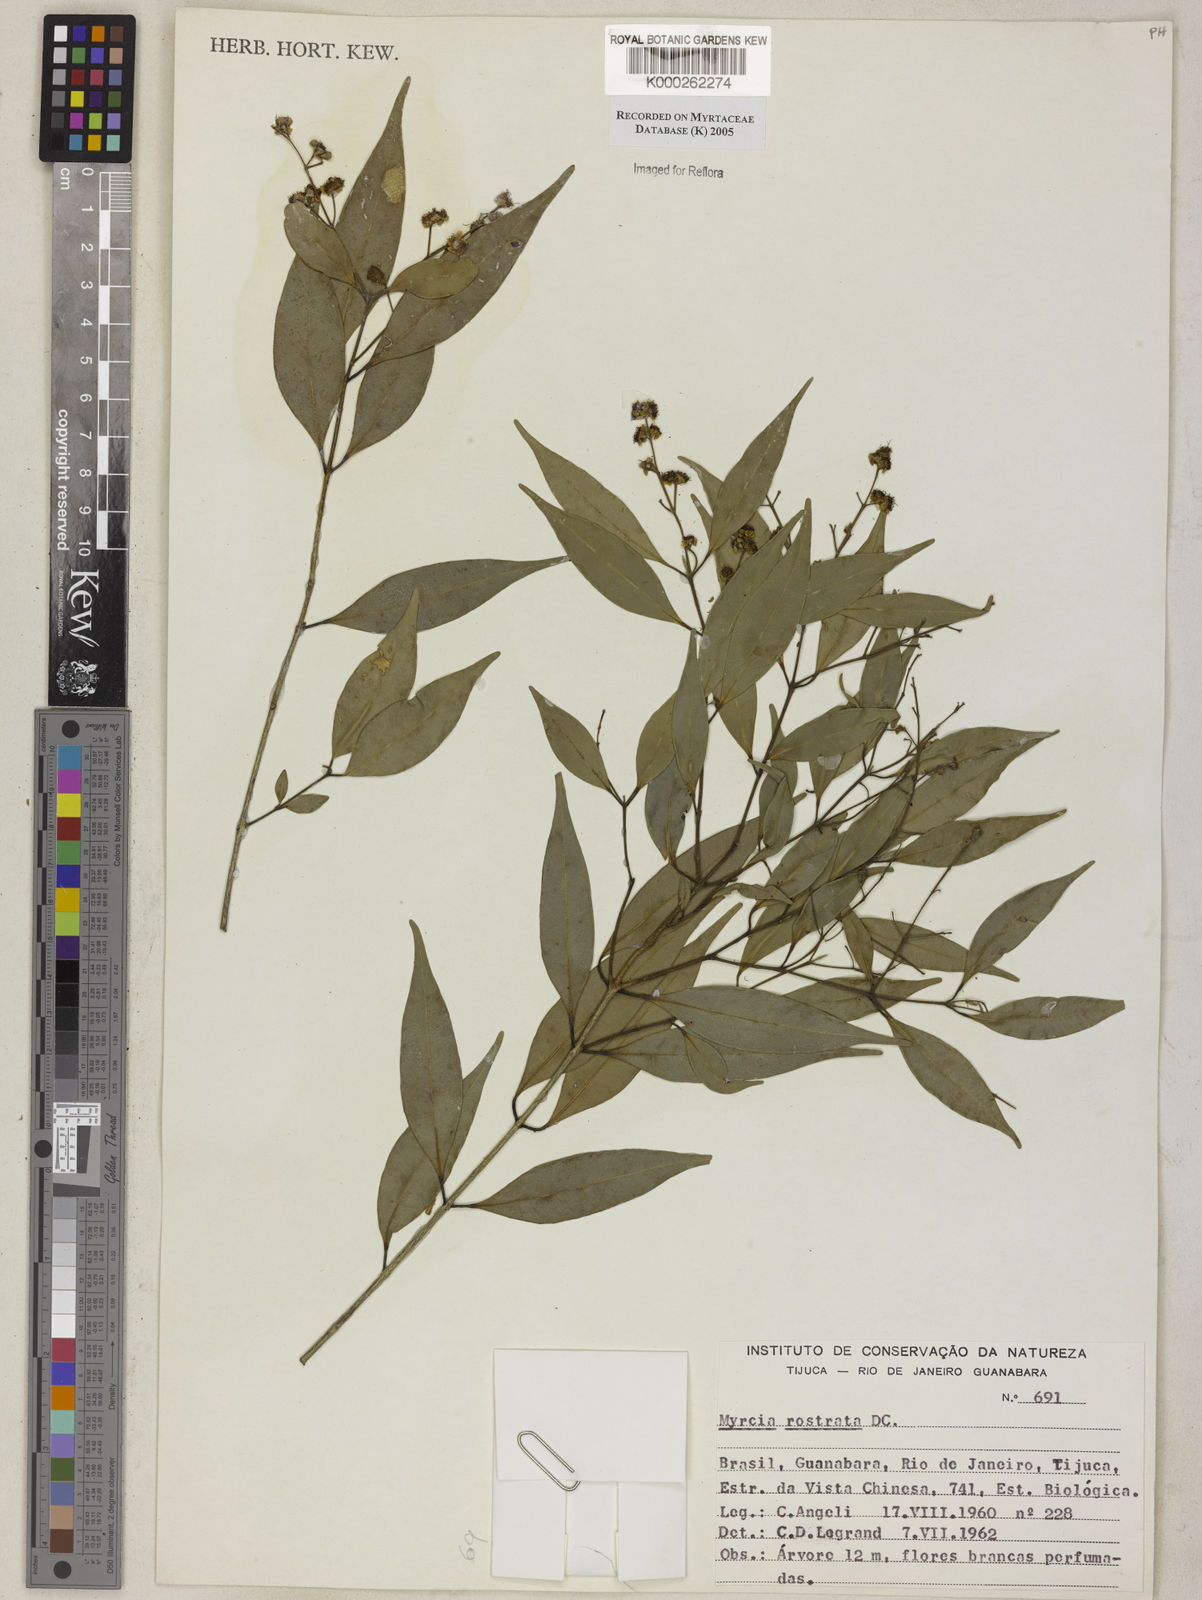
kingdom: Plantae
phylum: Tracheophyta
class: Magnoliopsida
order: Myrtales
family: Myrtaceae
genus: Myrcia
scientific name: Myrcia splendens
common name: Surinam cherry
